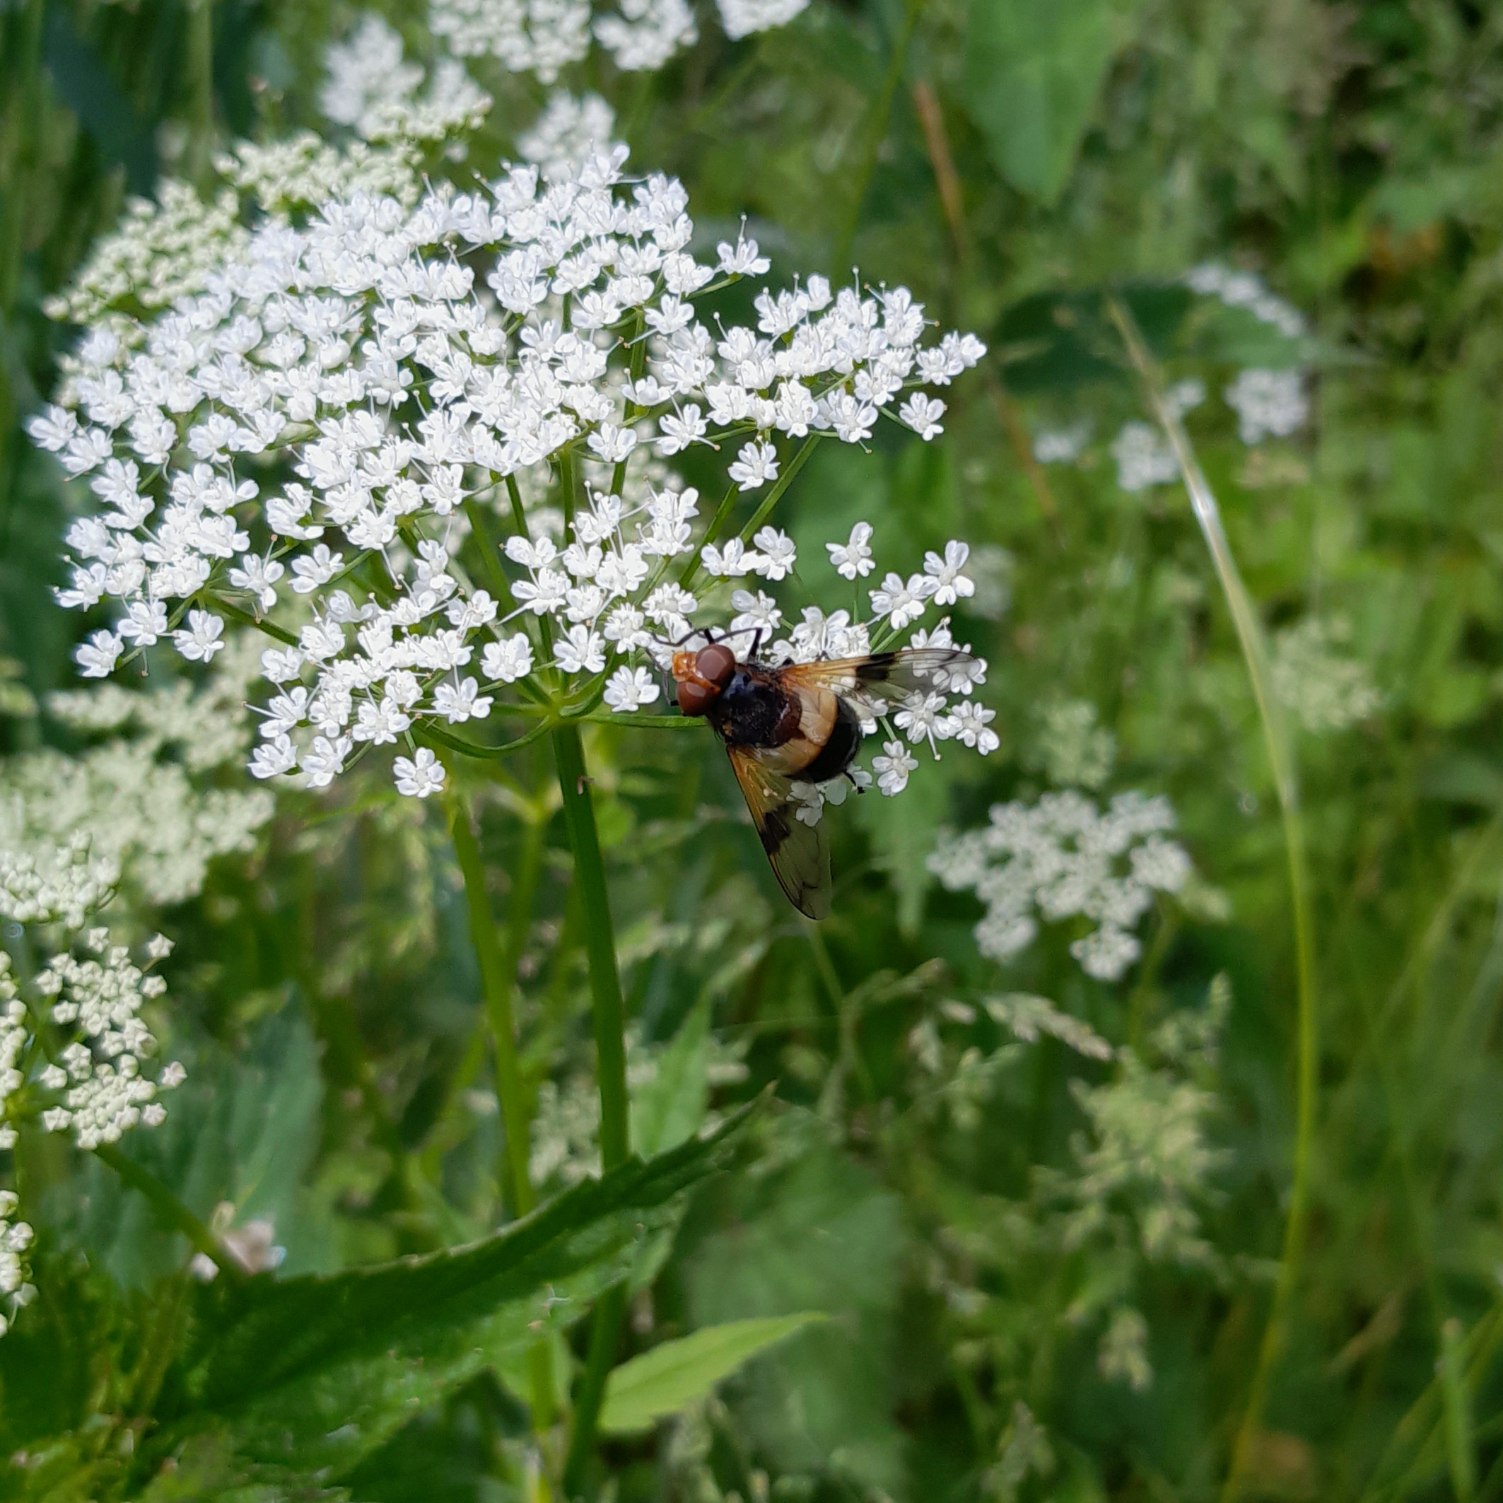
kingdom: Animalia
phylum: Arthropoda
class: Insecta
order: Diptera
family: Syrphidae
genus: Volucella
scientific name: Volucella pellucens
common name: Hvidbåndet humlesvirreflue
